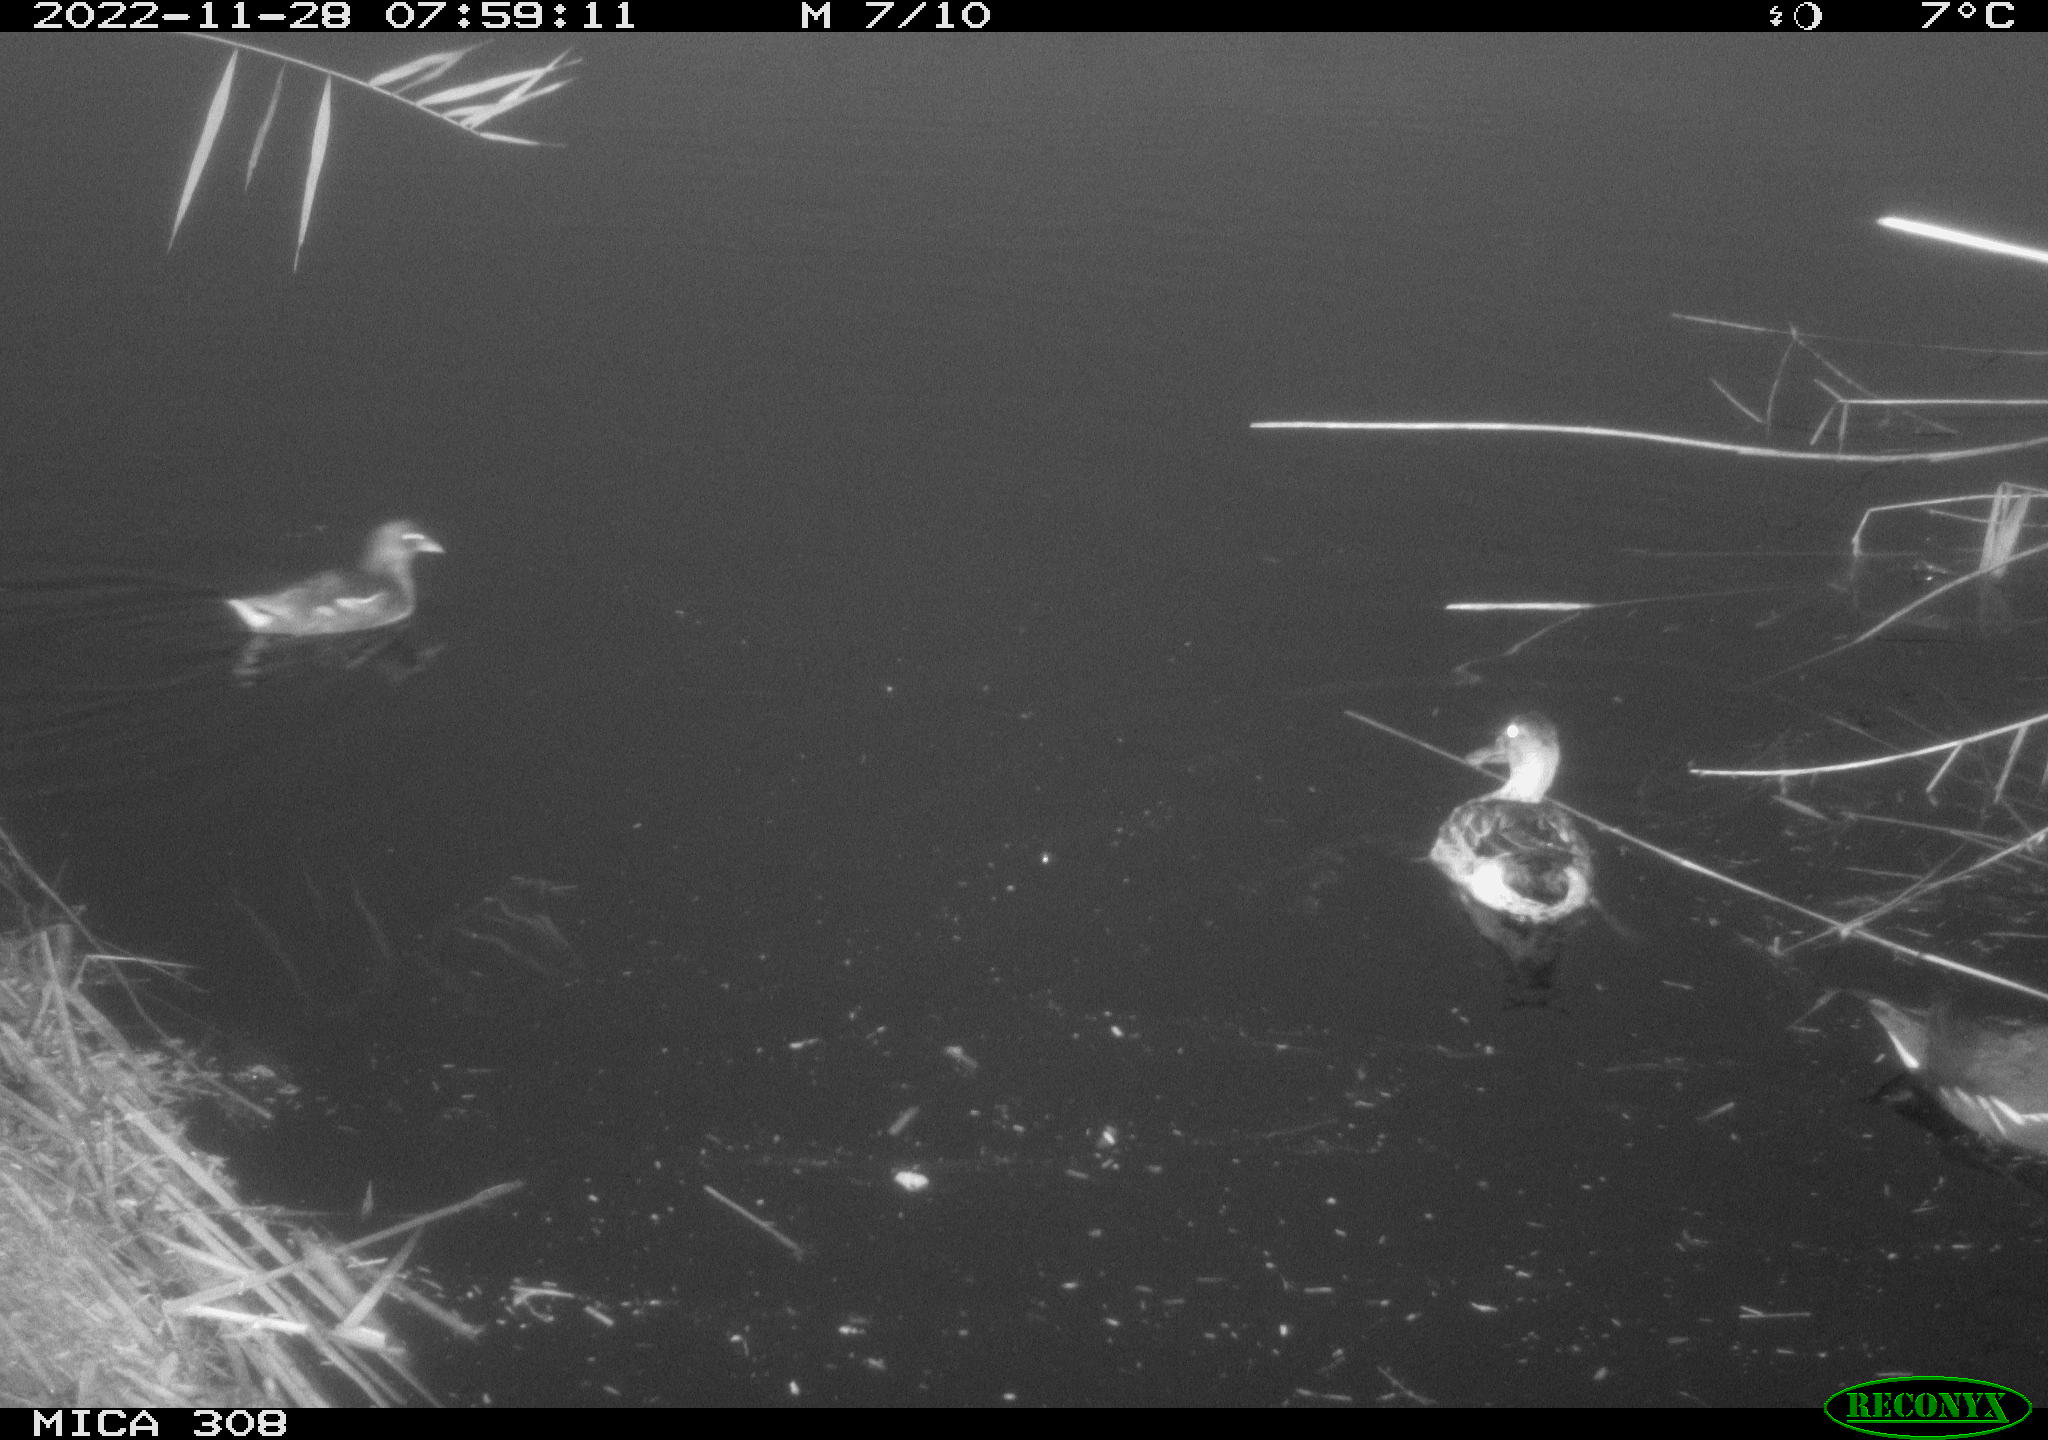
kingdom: Animalia
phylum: Chordata
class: Aves
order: Gruiformes
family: Rallidae
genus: Gallinula
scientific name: Gallinula chloropus
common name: Common moorhen
